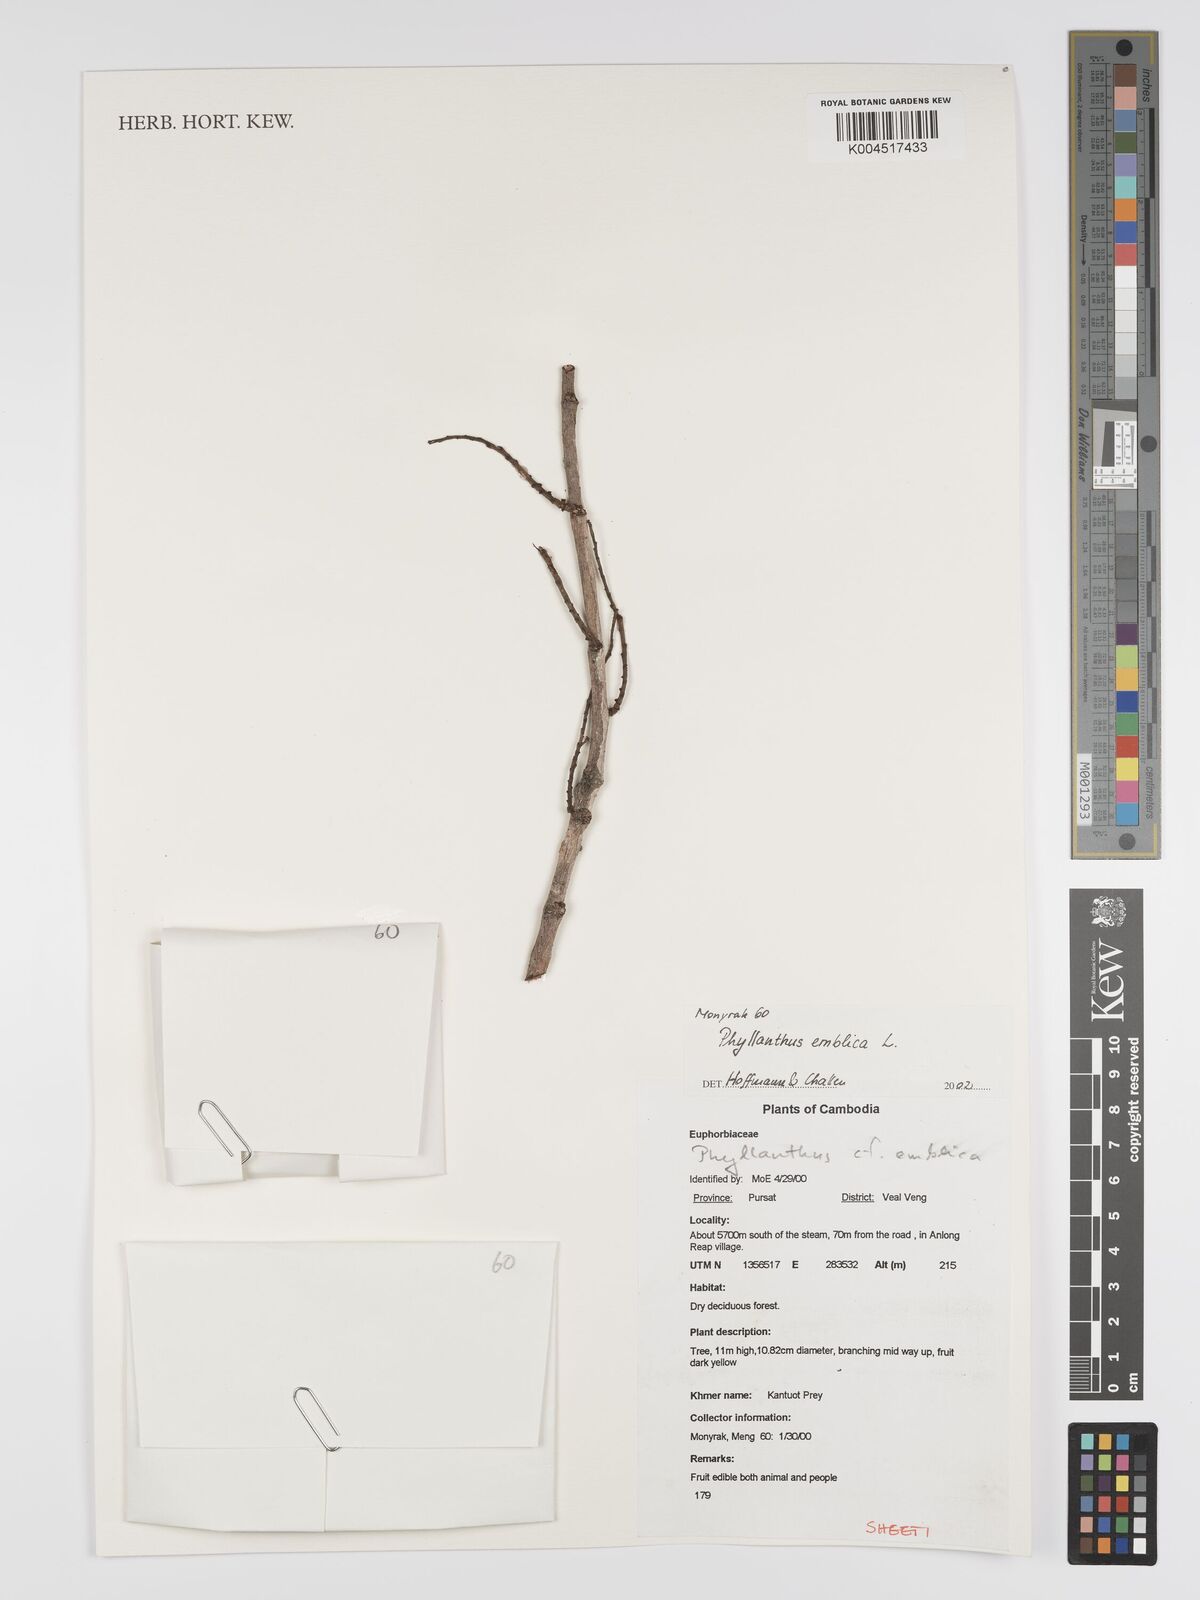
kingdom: Plantae
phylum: Tracheophyta
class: Magnoliopsida
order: Malpighiales
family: Phyllanthaceae
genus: Phyllanthus
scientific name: Phyllanthus emblica
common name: Indian gooseberry
